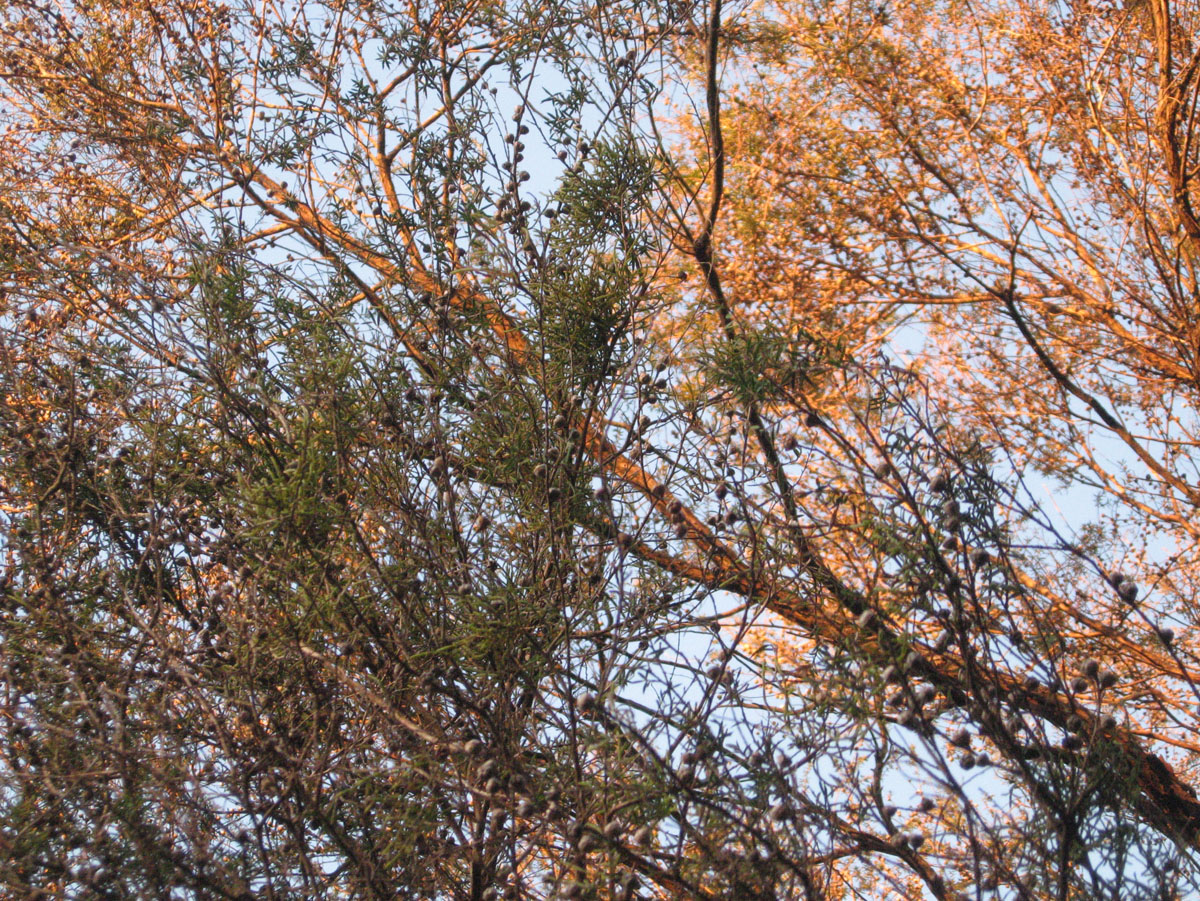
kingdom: Plantae
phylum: Tracheophyta
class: Magnoliopsida
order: Santalales
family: Viscaceae
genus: Korthalsella
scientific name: Korthalsella salicornioides
